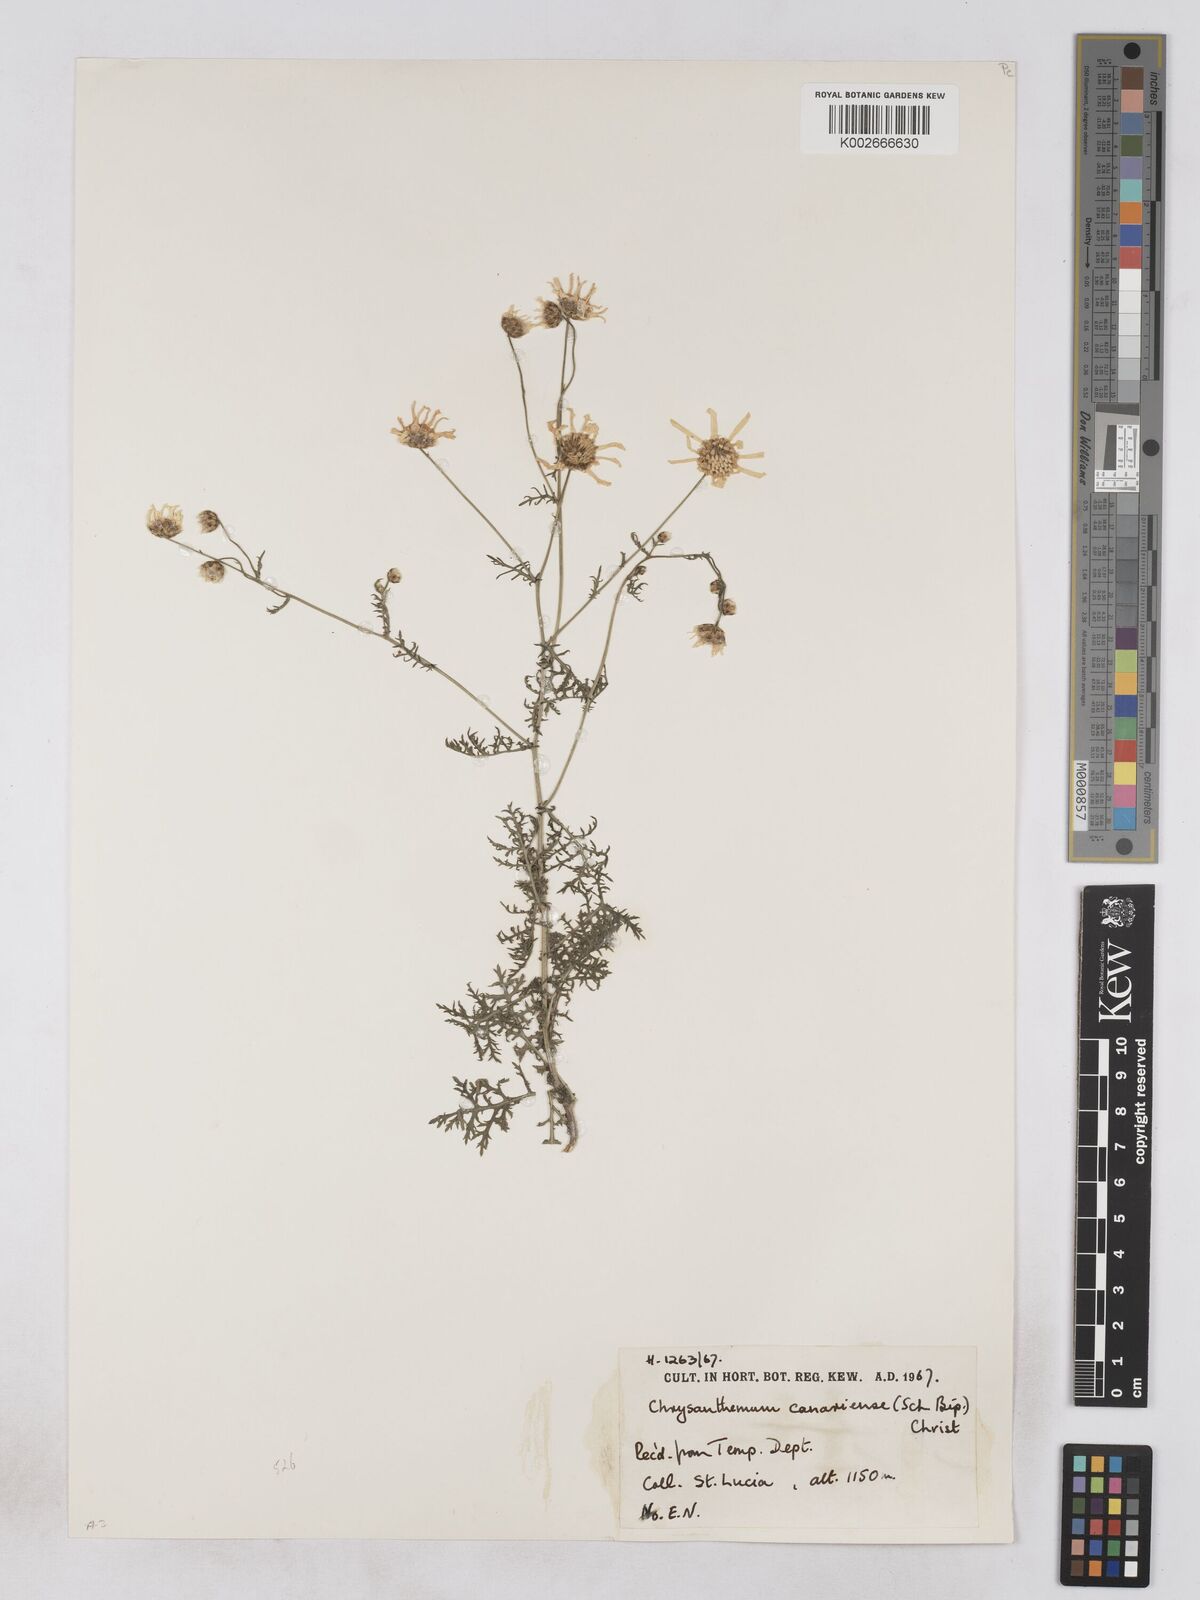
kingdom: Plantae
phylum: Tracheophyta
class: Magnoliopsida
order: Asterales
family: Asteraceae
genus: Argyranthemum
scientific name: Argyranthemum adauctum
